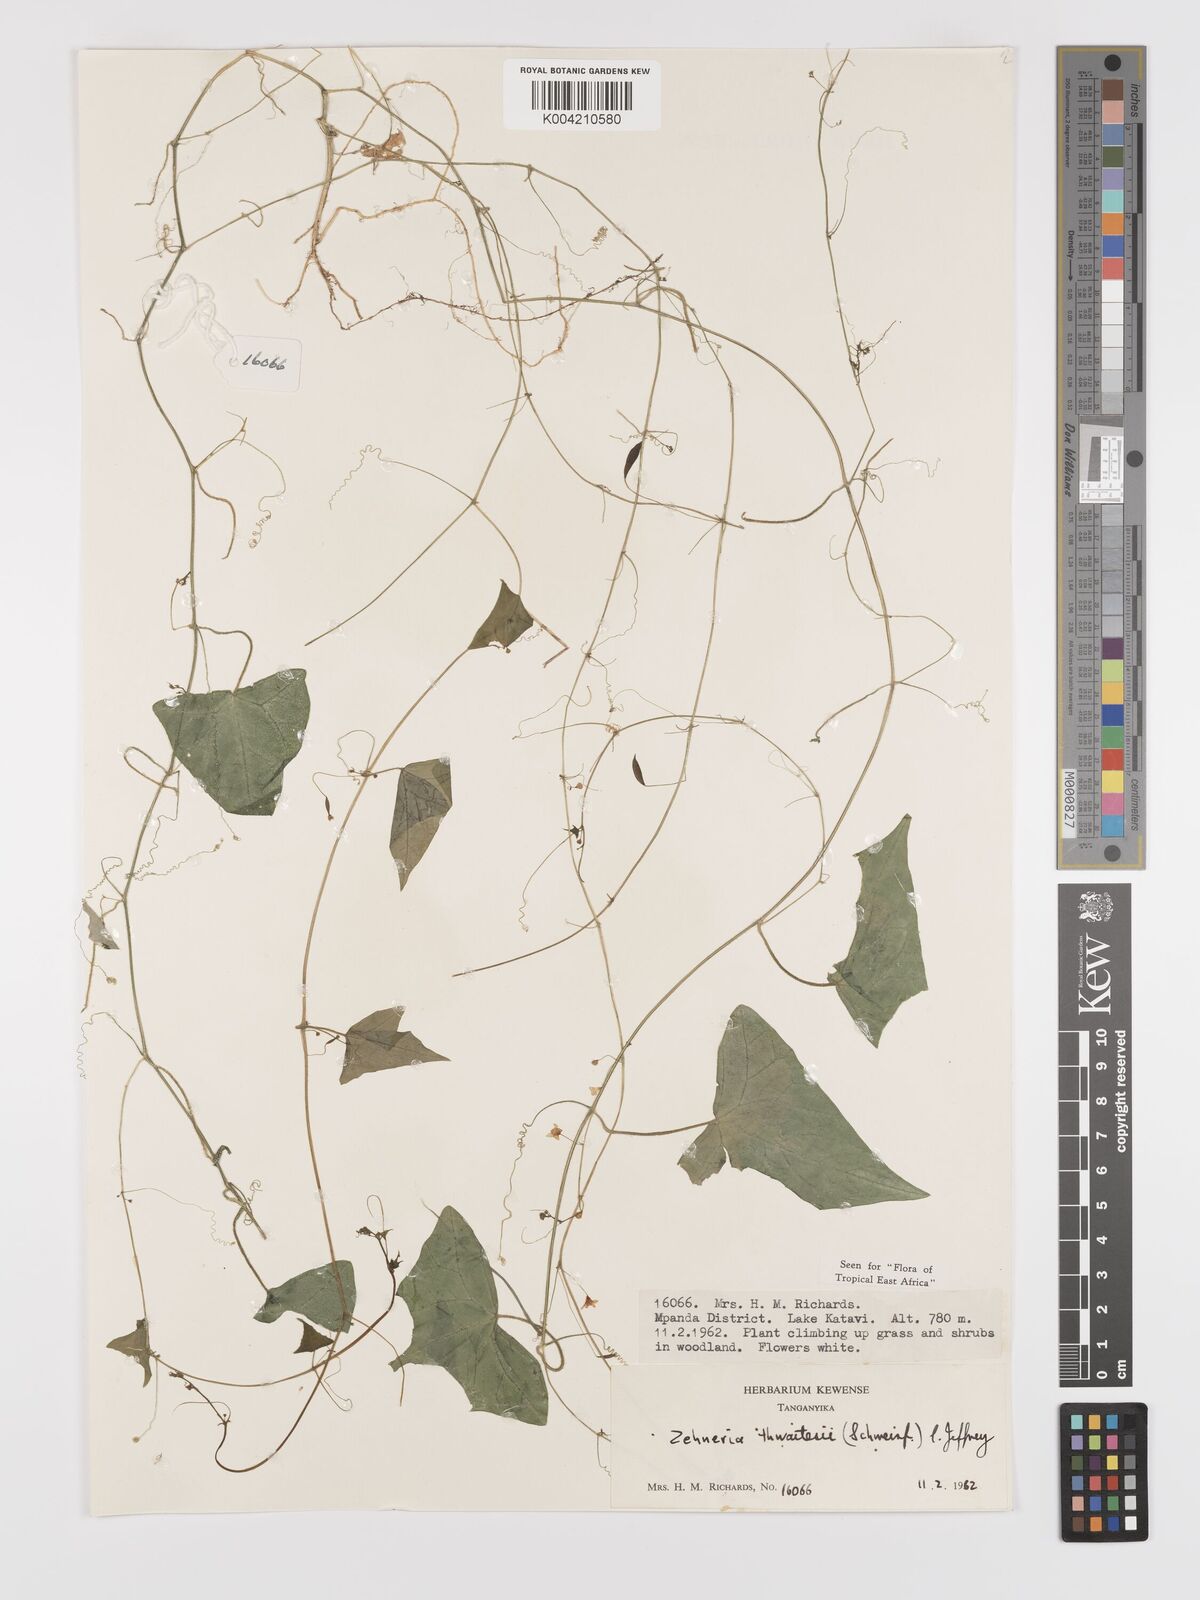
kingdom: Plantae
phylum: Tracheophyta
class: Magnoliopsida
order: Cucurbitales
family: Cucurbitaceae
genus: Zehneria
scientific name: Zehneria thwaitesii
